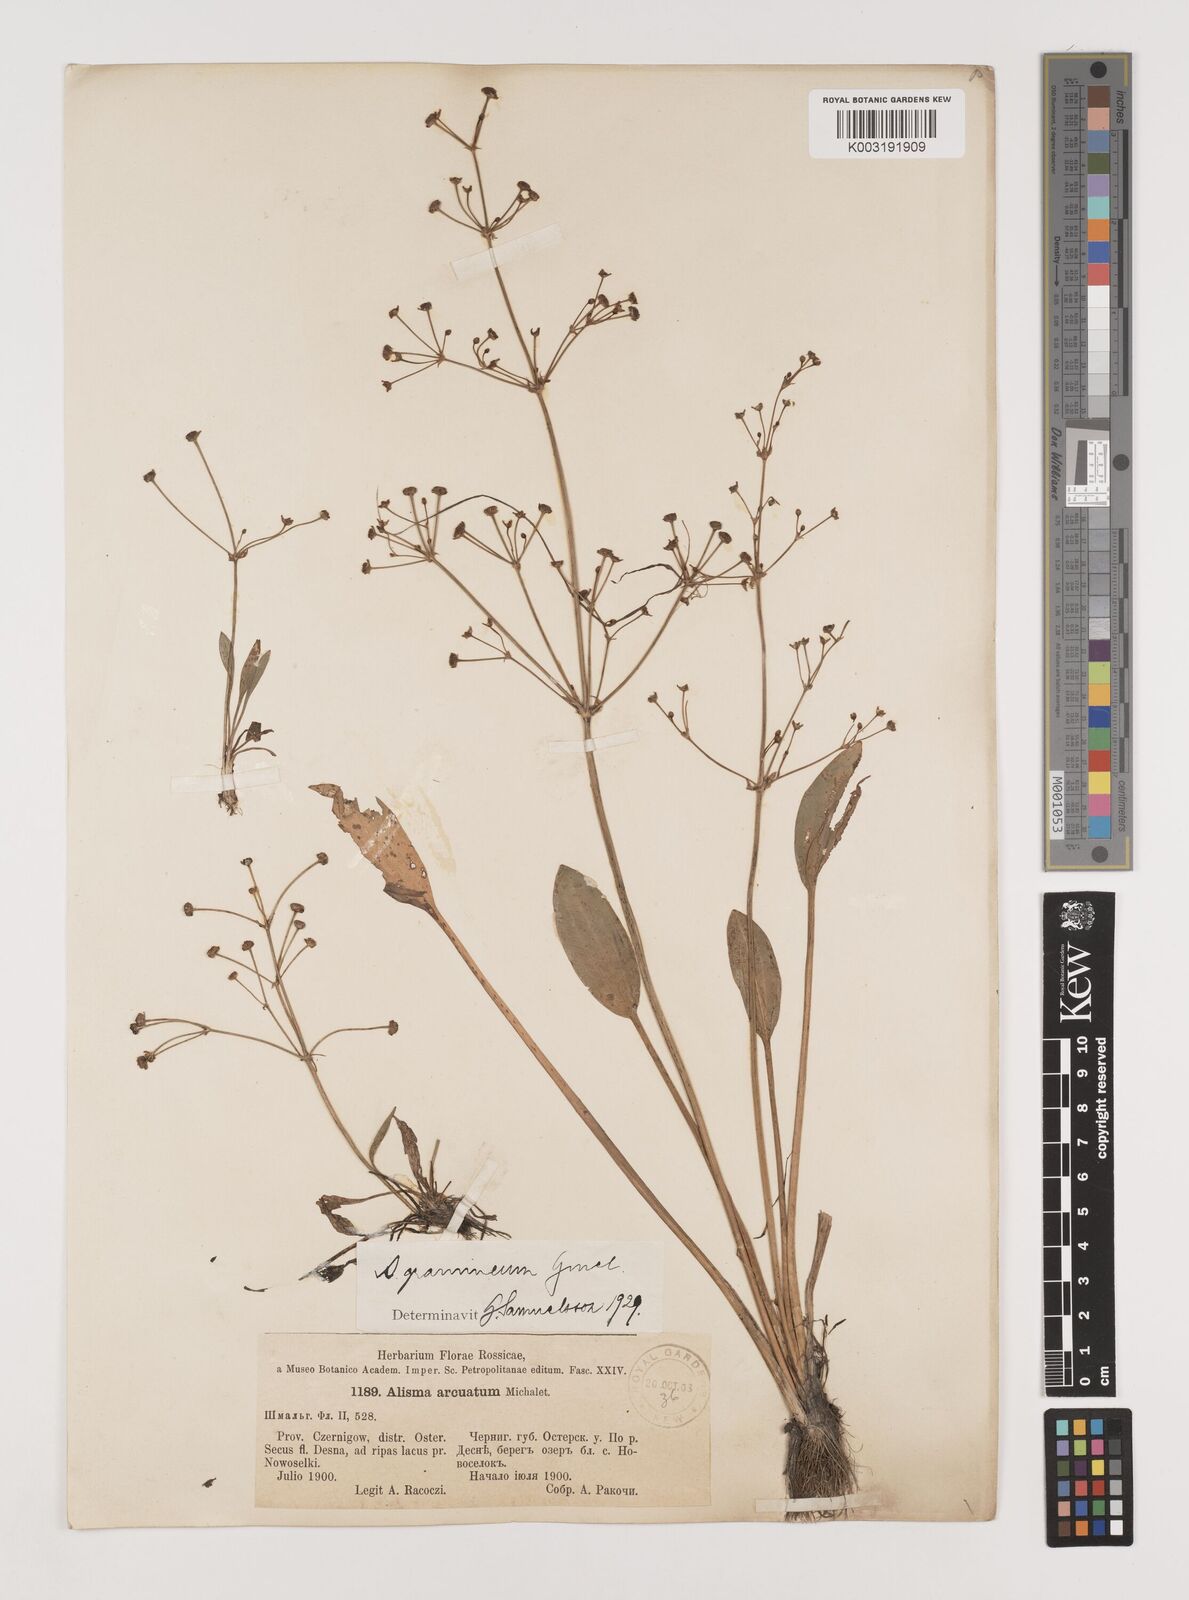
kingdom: Plantae
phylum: Tracheophyta
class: Liliopsida
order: Alismatales
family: Alismataceae
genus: Alisma
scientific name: Alisma gramineum
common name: Ribbon-leaved water-plantain
